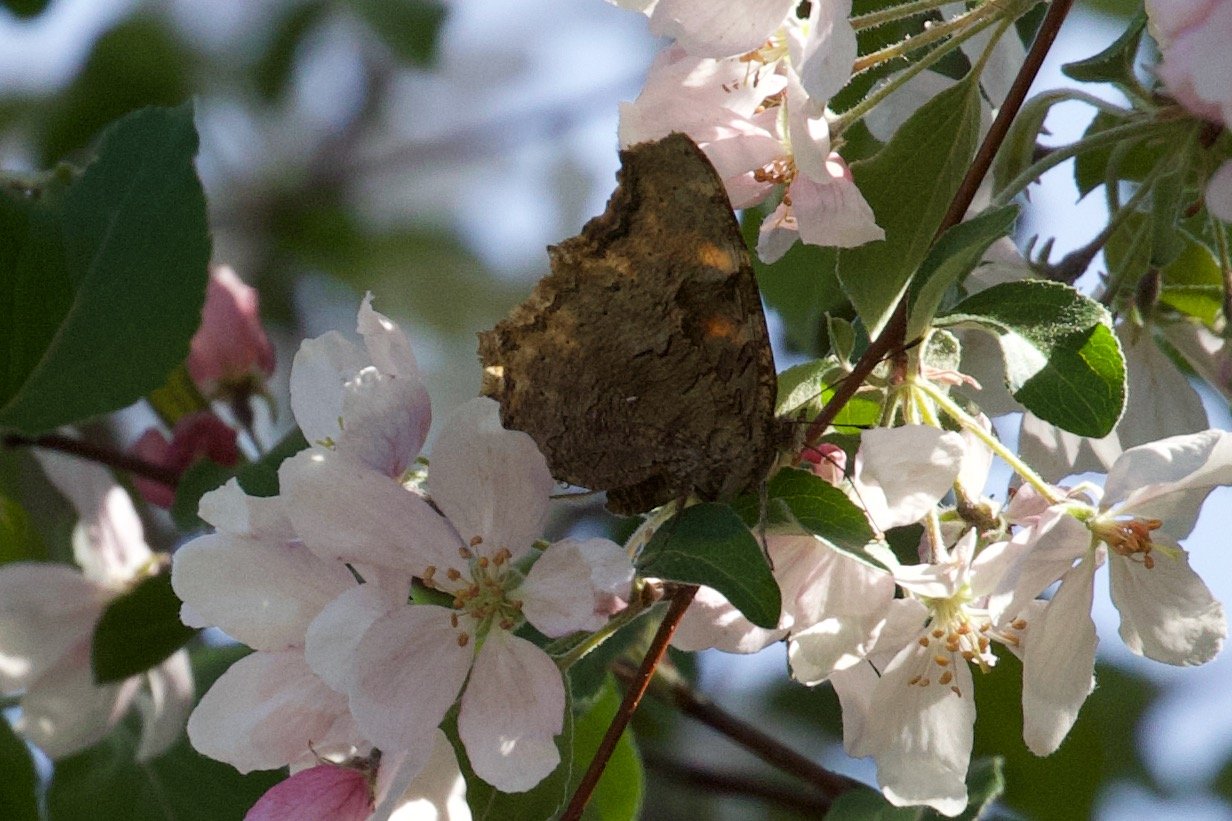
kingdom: Animalia
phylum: Arthropoda
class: Insecta
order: Lepidoptera
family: Nymphalidae
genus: Polygonia
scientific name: Polygonia vaualbum
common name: Compton Tortoiseshell
